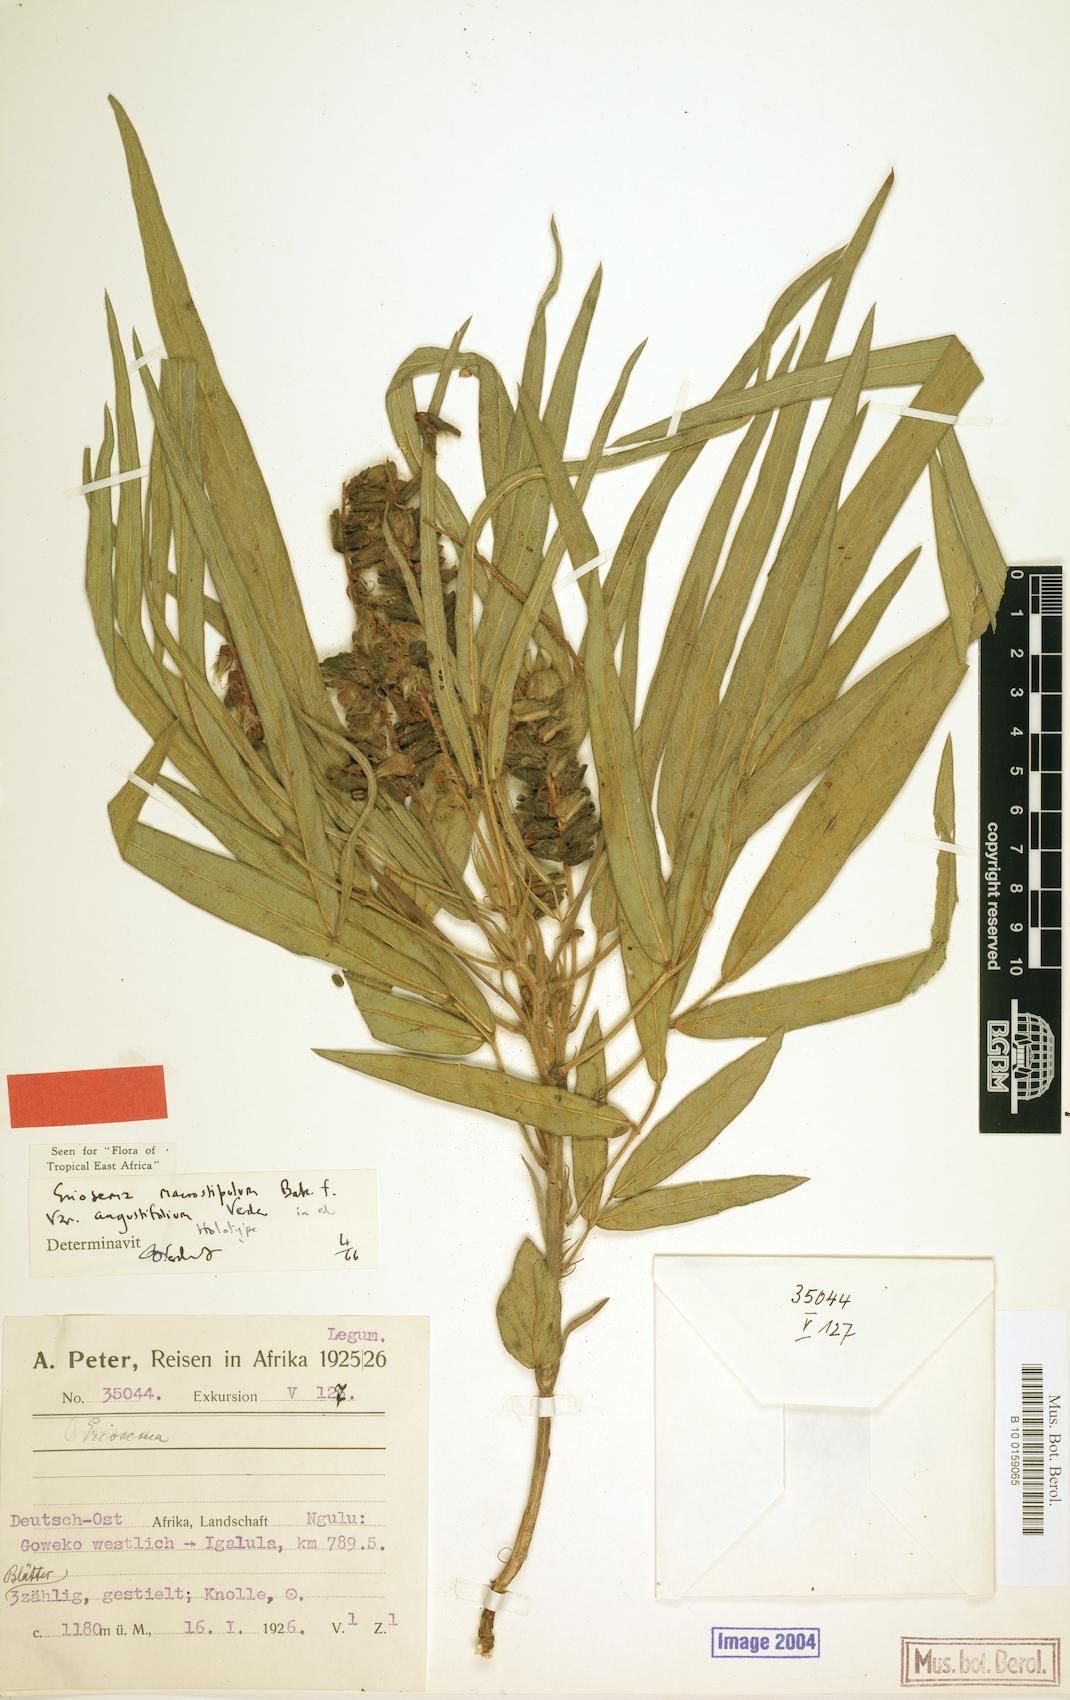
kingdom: Plantae
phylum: Tracheophyta
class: Magnoliopsida
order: Fabales
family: Fabaceae
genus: Eriosema
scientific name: Eriosema macrostipulum
